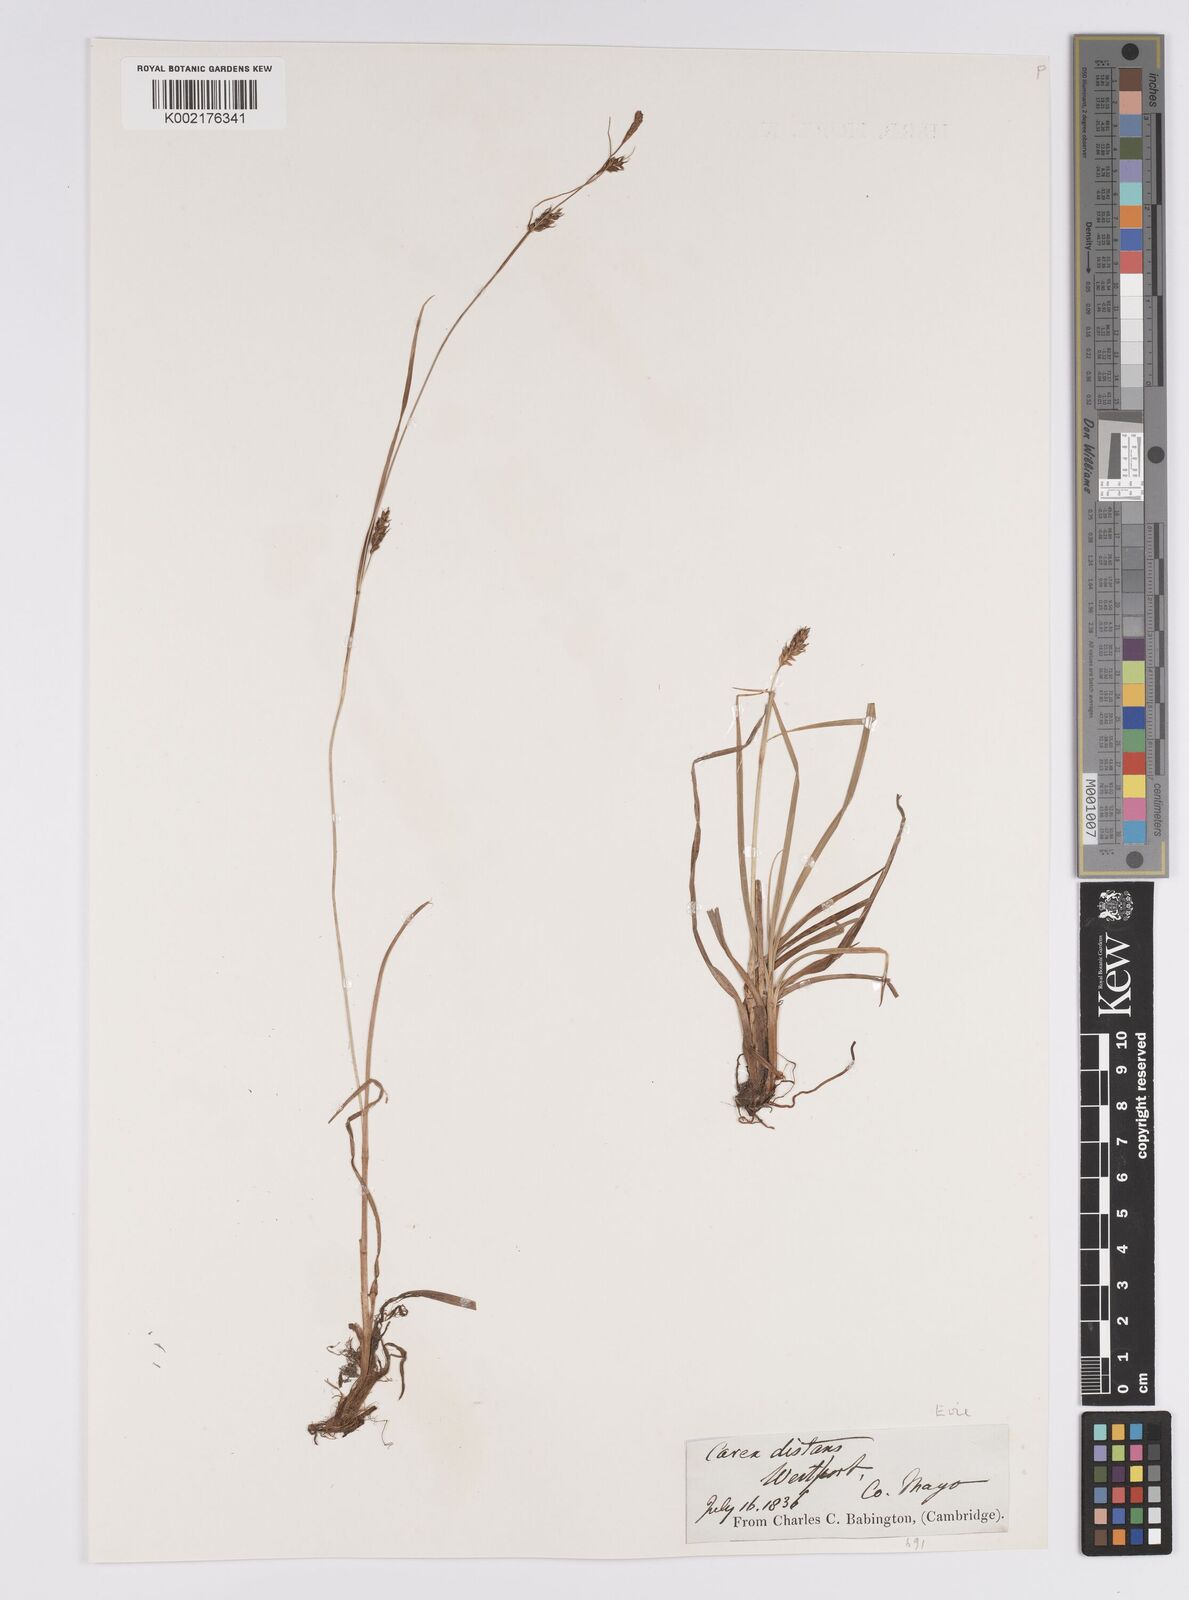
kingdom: Plantae
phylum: Tracheophyta
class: Liliopsida
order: Poales
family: Cyperaceae
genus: Carex
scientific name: Carex distans
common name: Distant sedge
